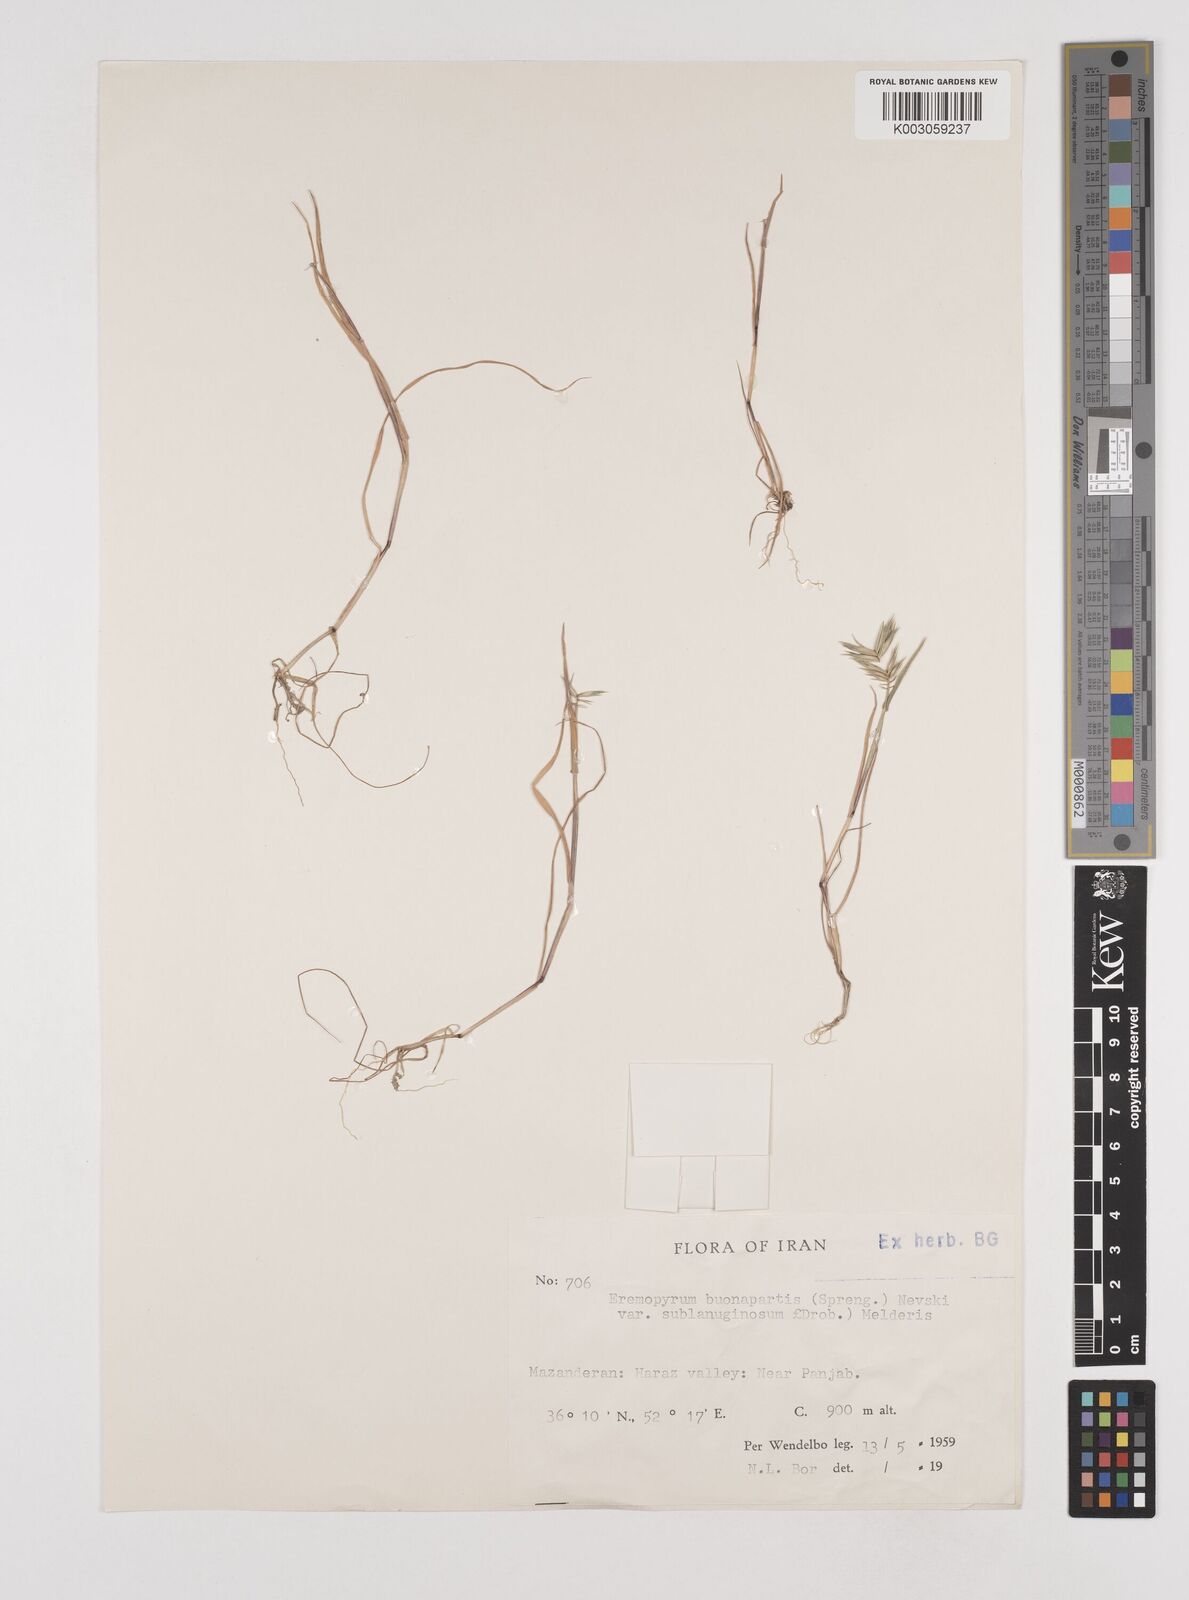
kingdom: Plantae
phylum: Tracheophyta
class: Liliopsida
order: Poales
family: Poaceae
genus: Eremopyrum
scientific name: Eremopyrum bonaepartis
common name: Tapertip false wheatgrass
